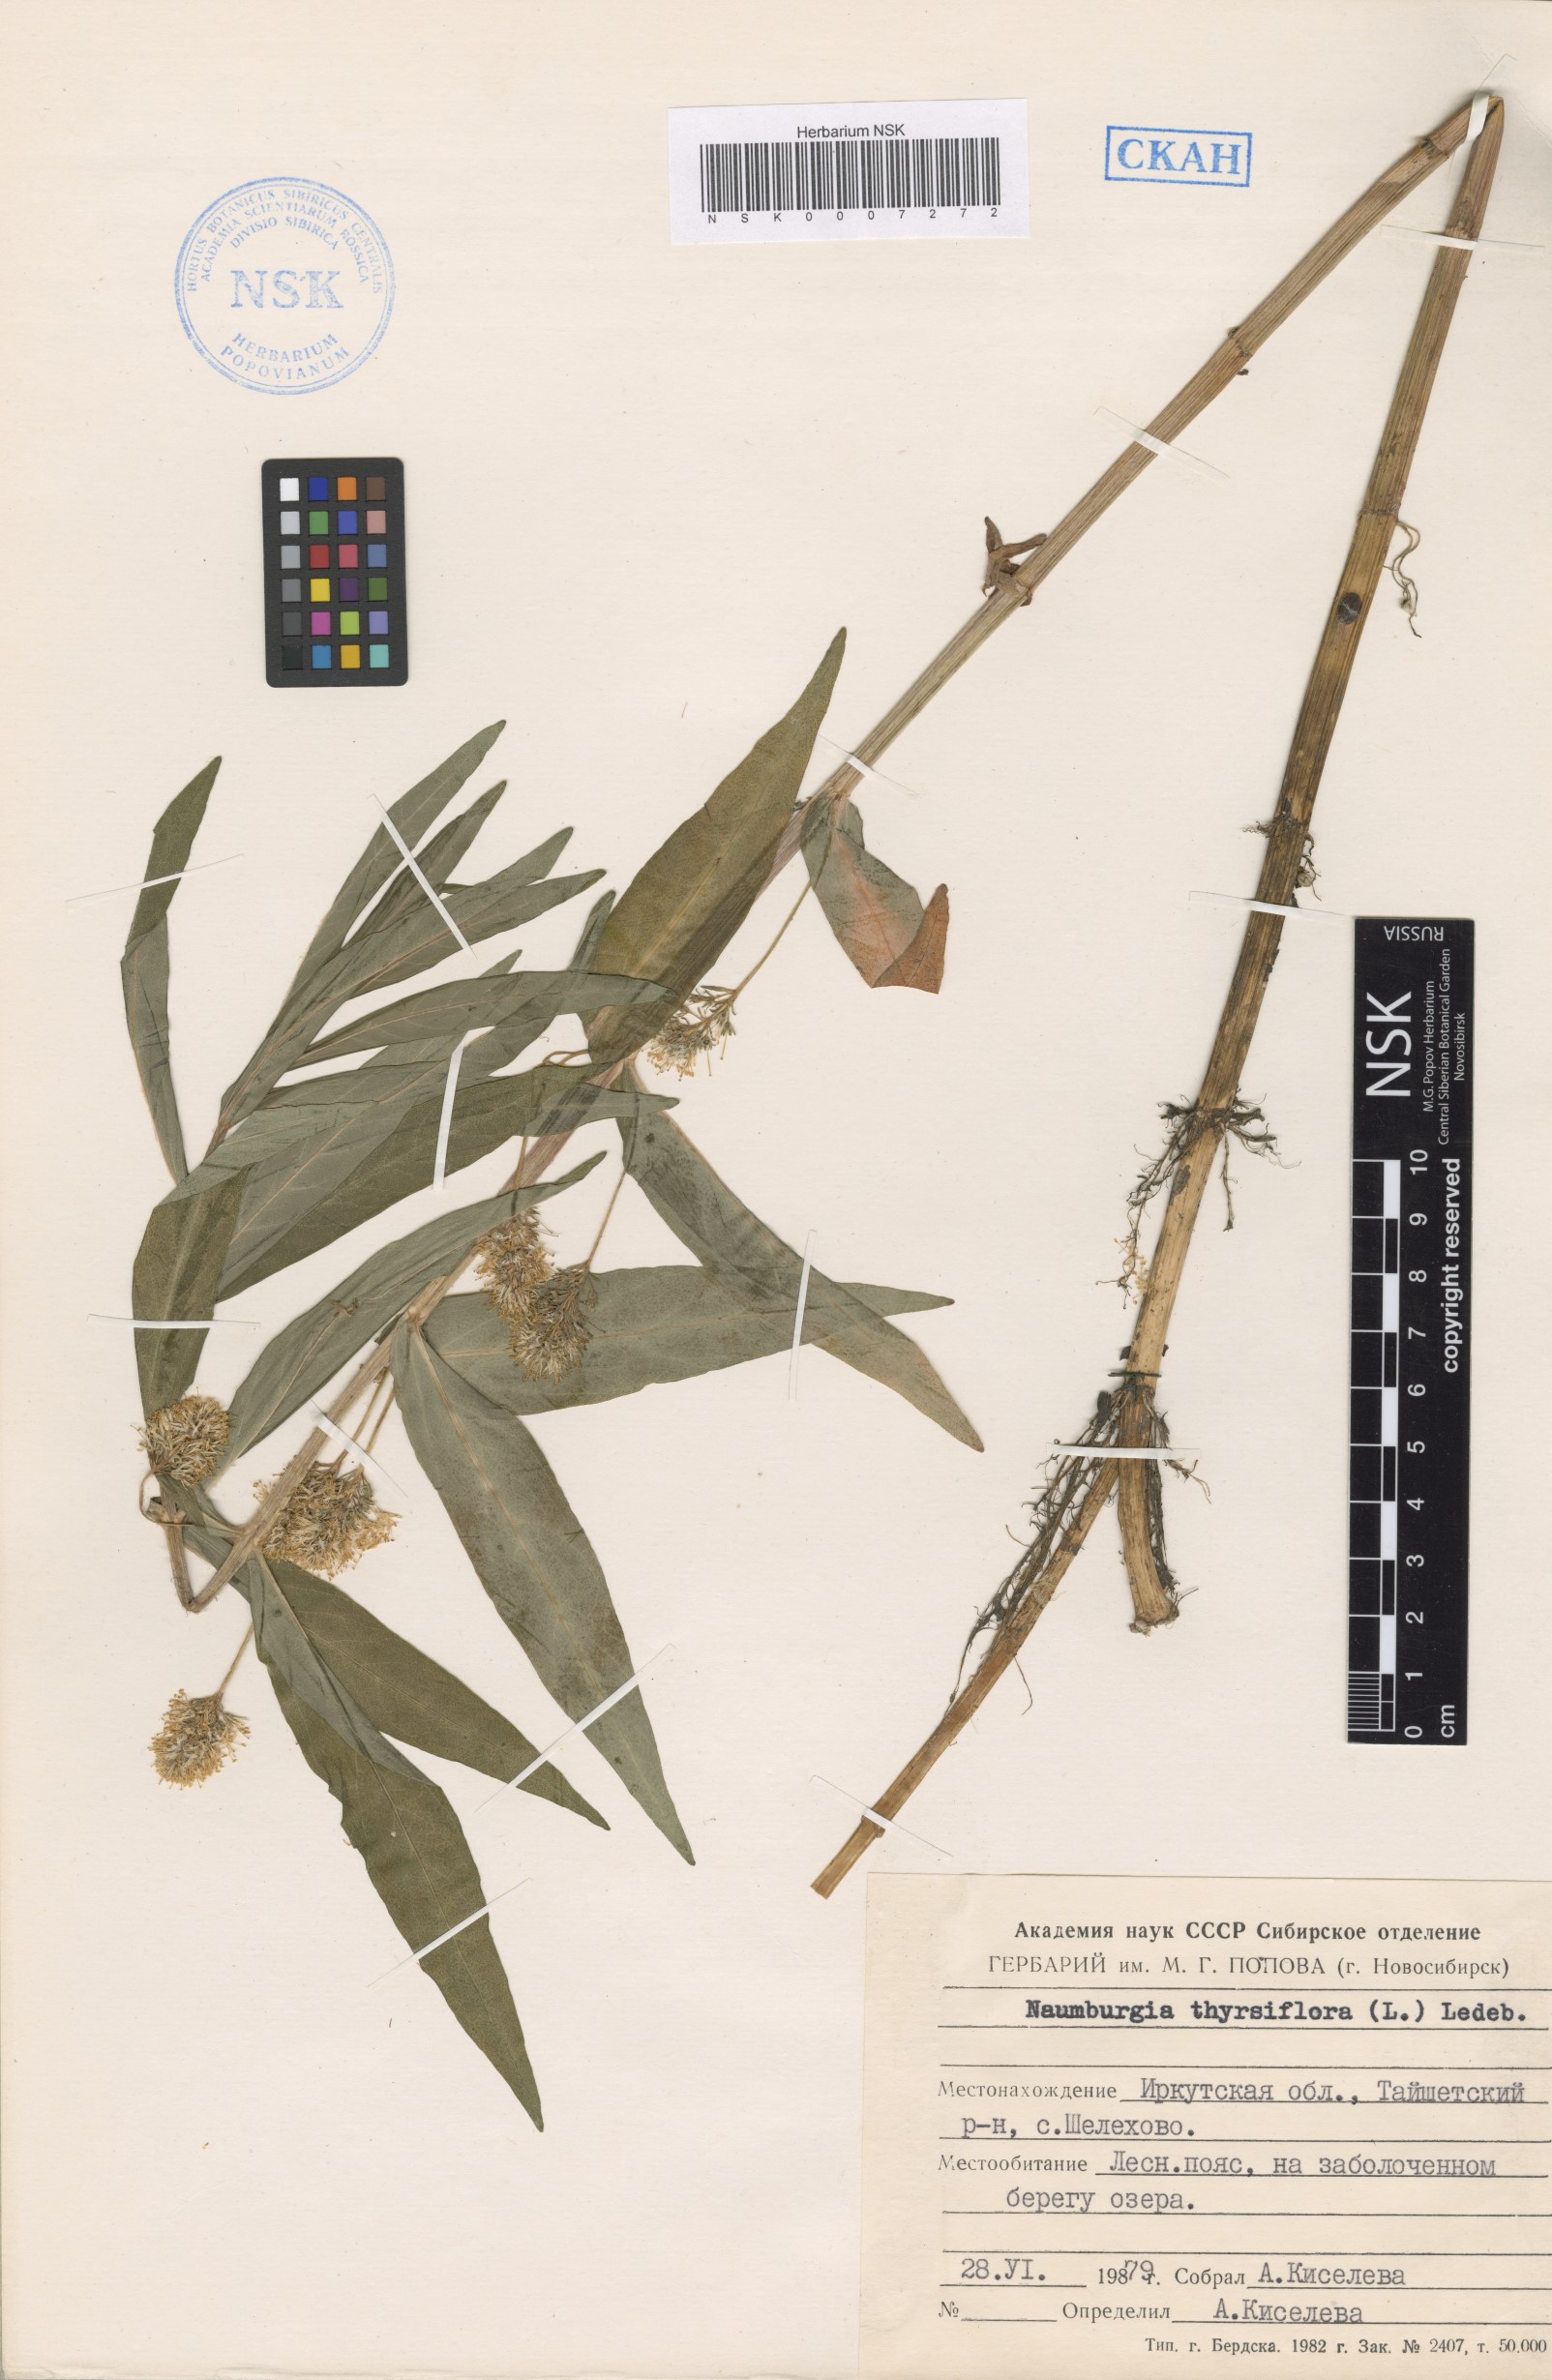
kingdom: Plantae
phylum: Tracheophyta
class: Magnoliopsida
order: Ericales
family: Primulaceae
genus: Lysimachia
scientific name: Lysimachia thyrsiflora
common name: Tufted loosestrife
